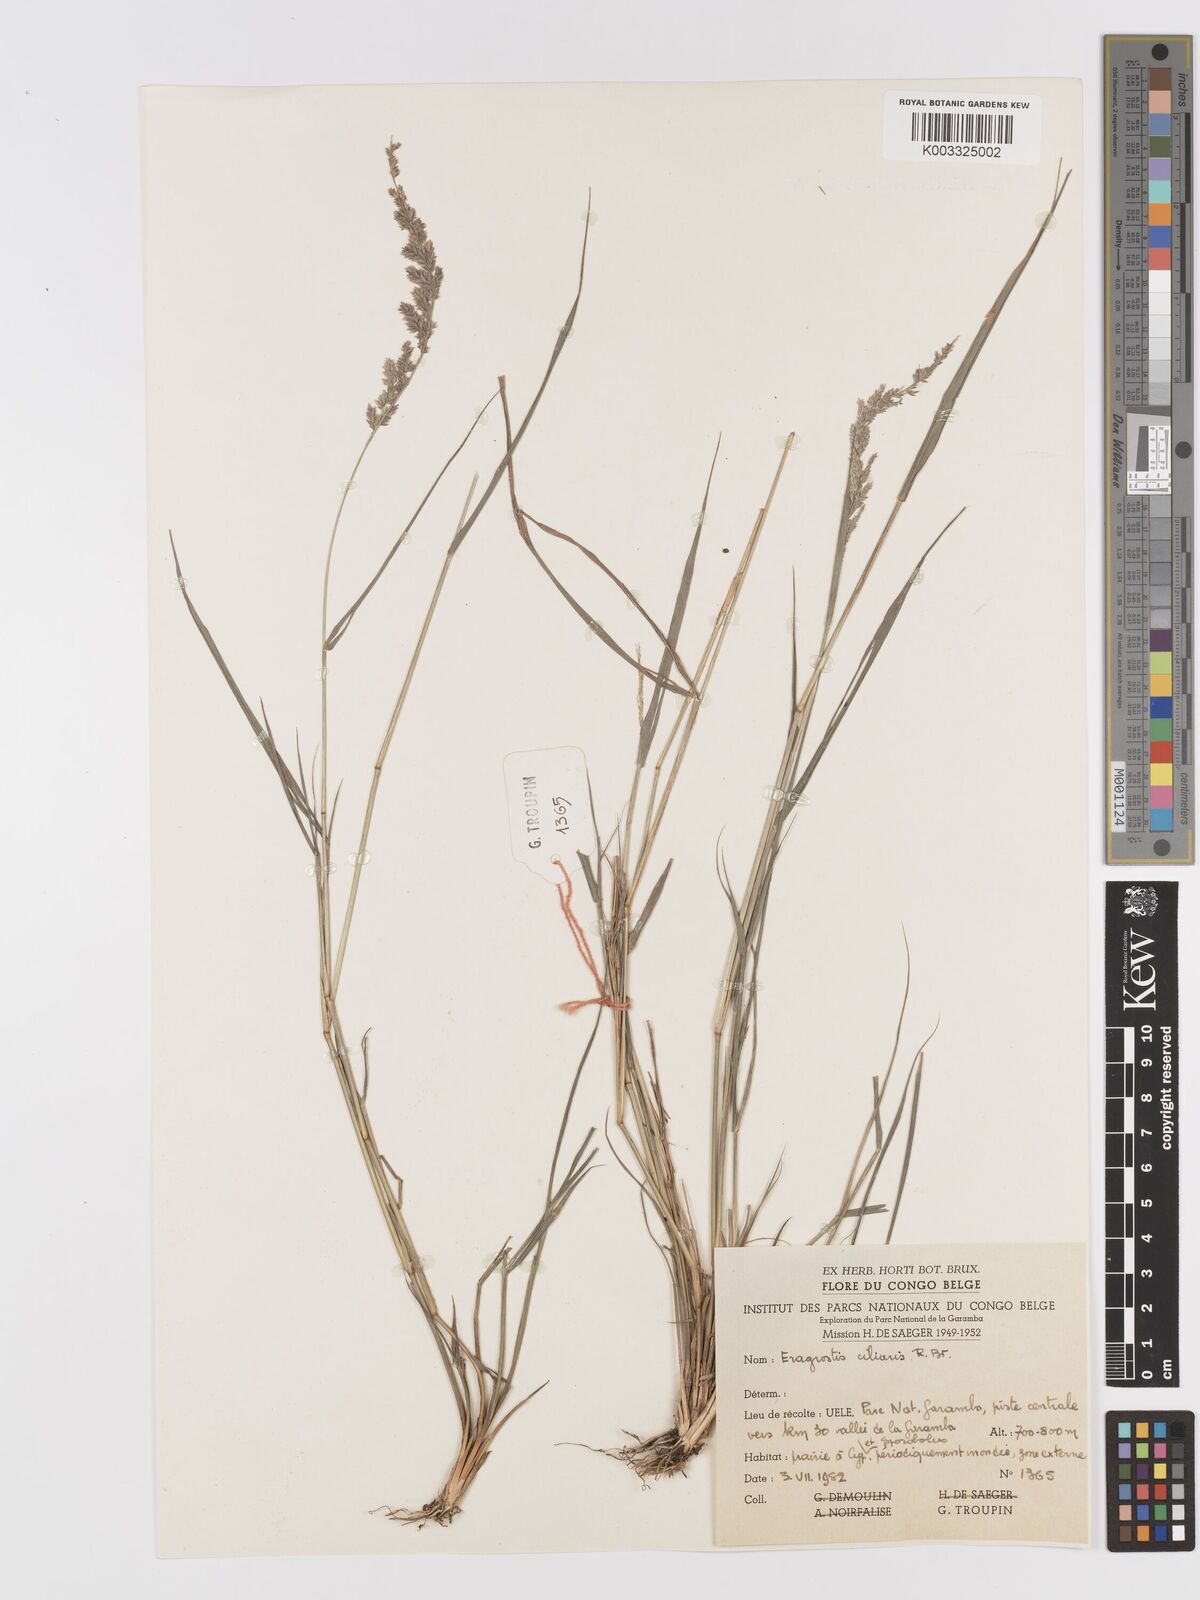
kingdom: Plantae
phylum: Tracheophyta
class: Liliopsida
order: Poales
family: Poaceae
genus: Eragrostis
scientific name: Eragrostis ciliaris
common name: Gophertail lovegrass
